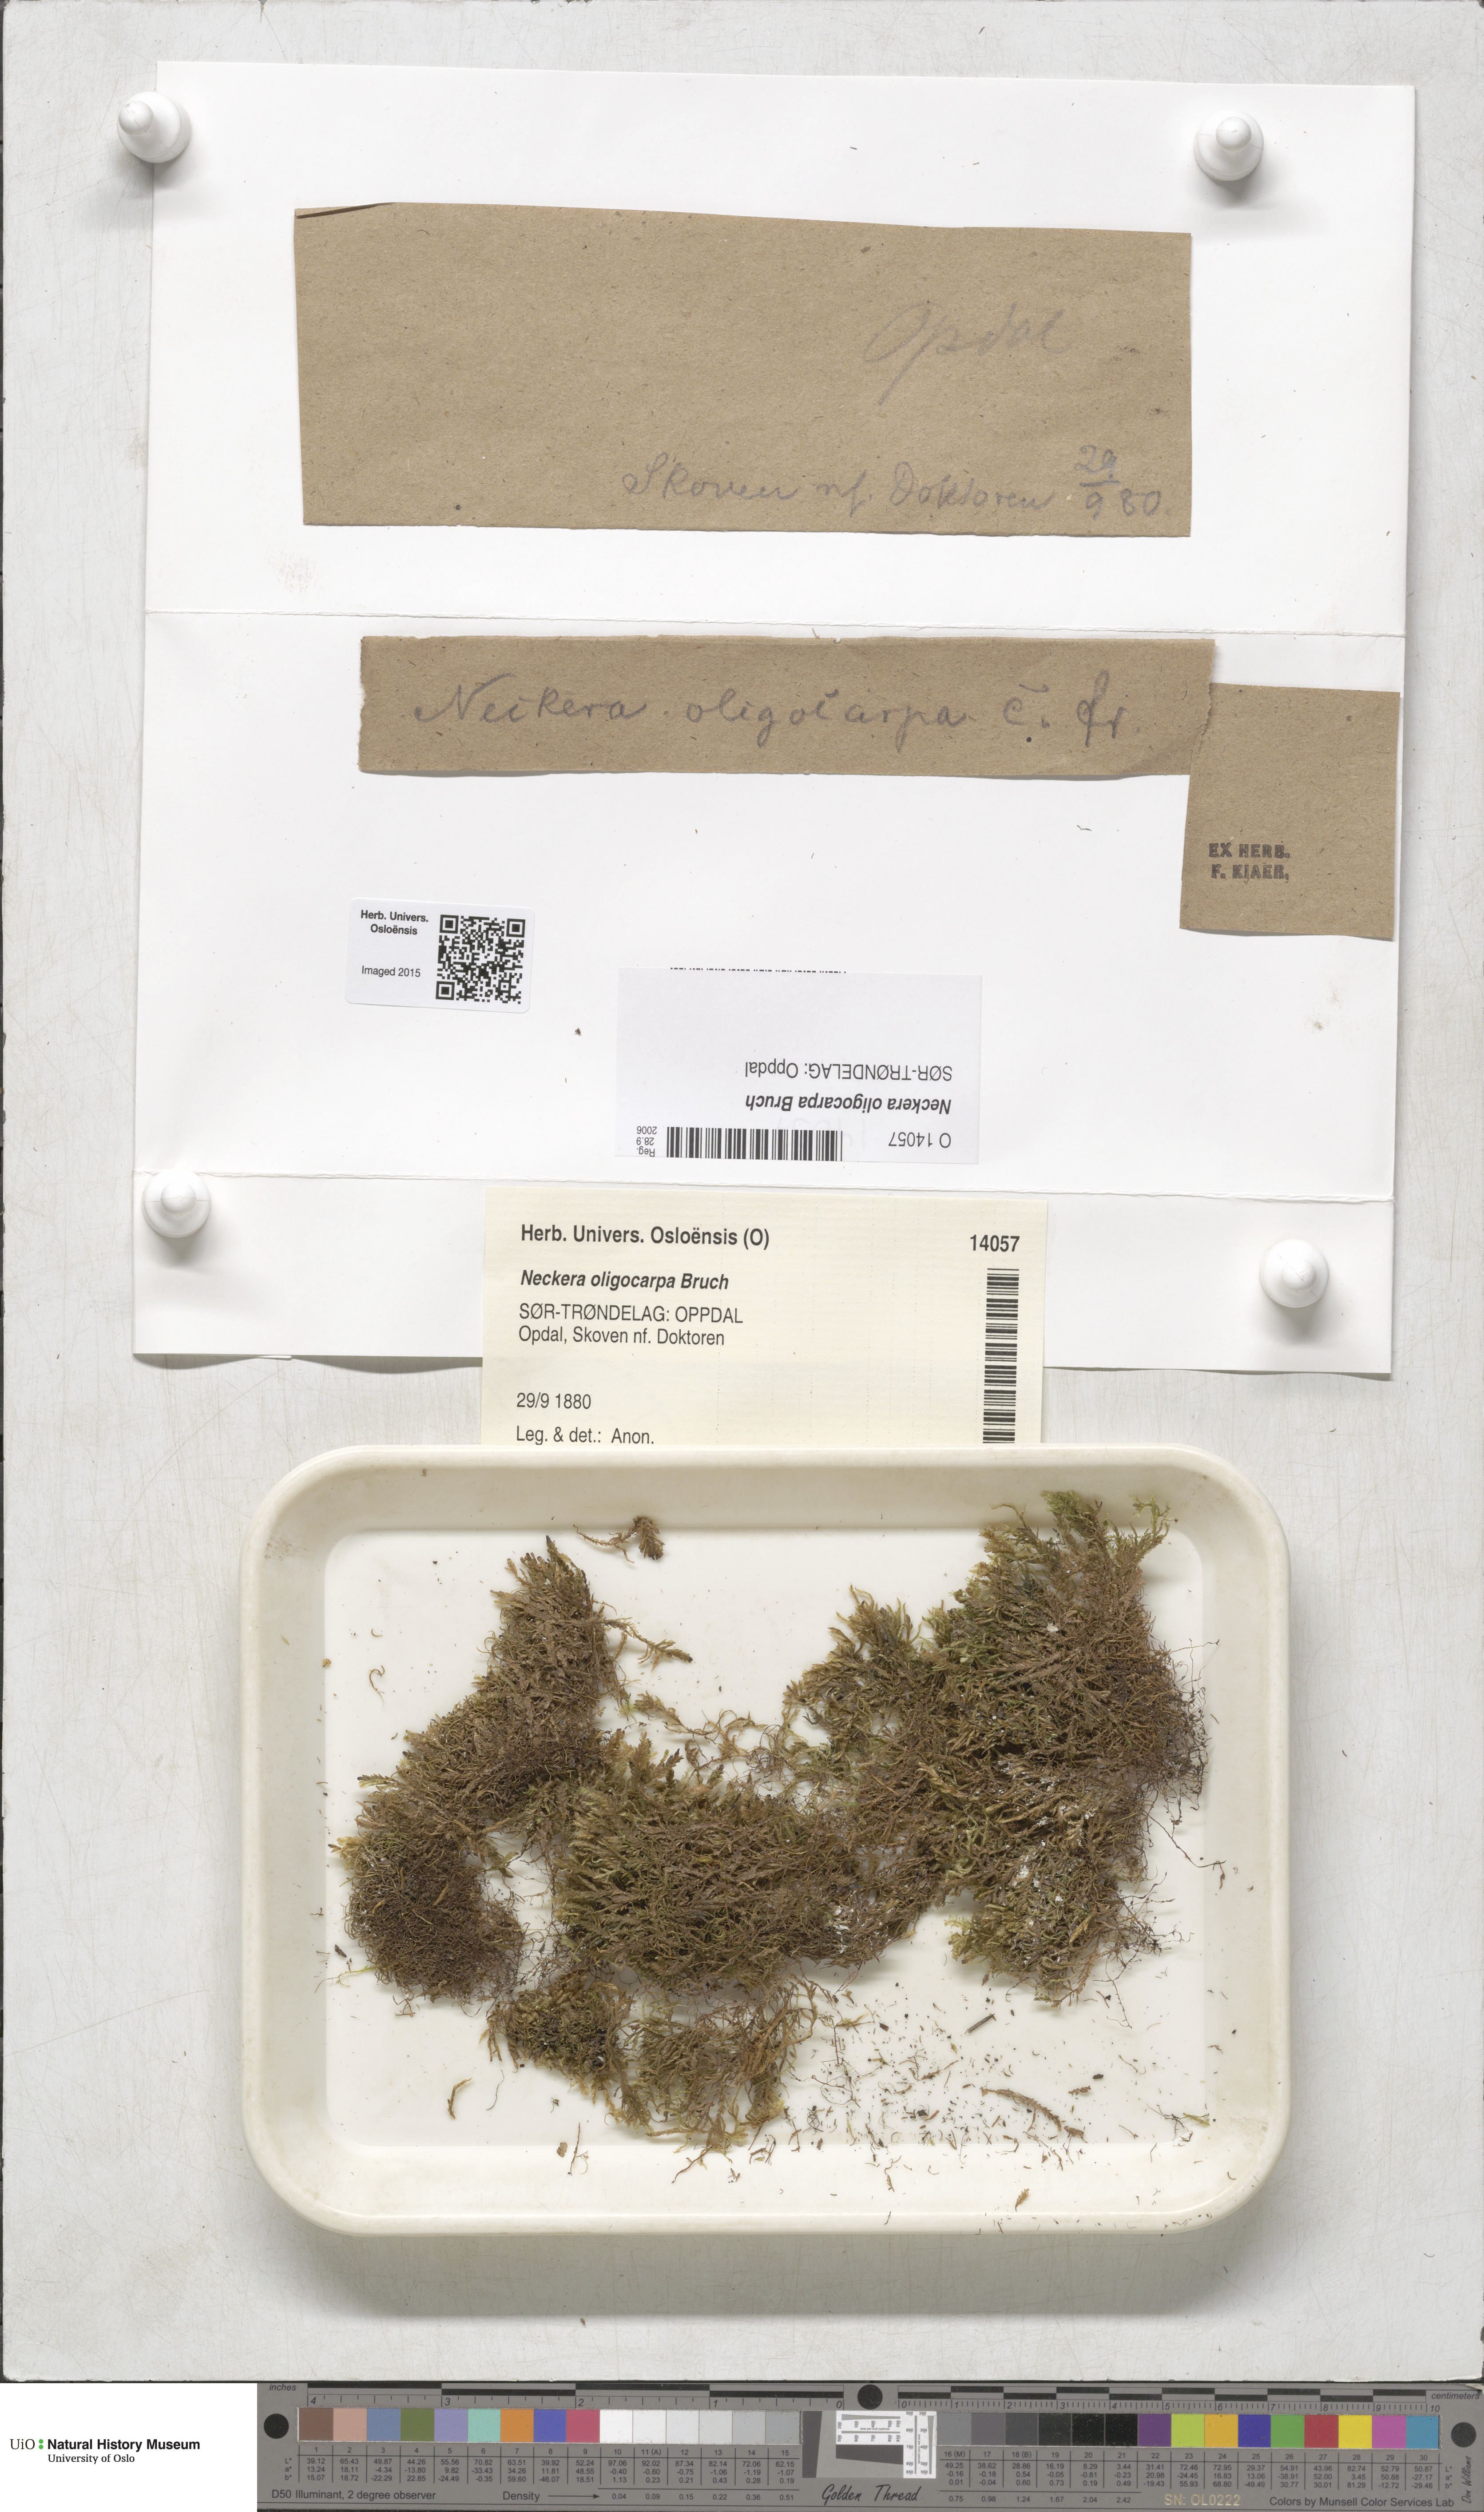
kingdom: Plantae
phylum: Bryophyta
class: Bryopsida
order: Hypnales
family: Neckeraceae
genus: Neckera
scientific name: Neckera oligocarpa
